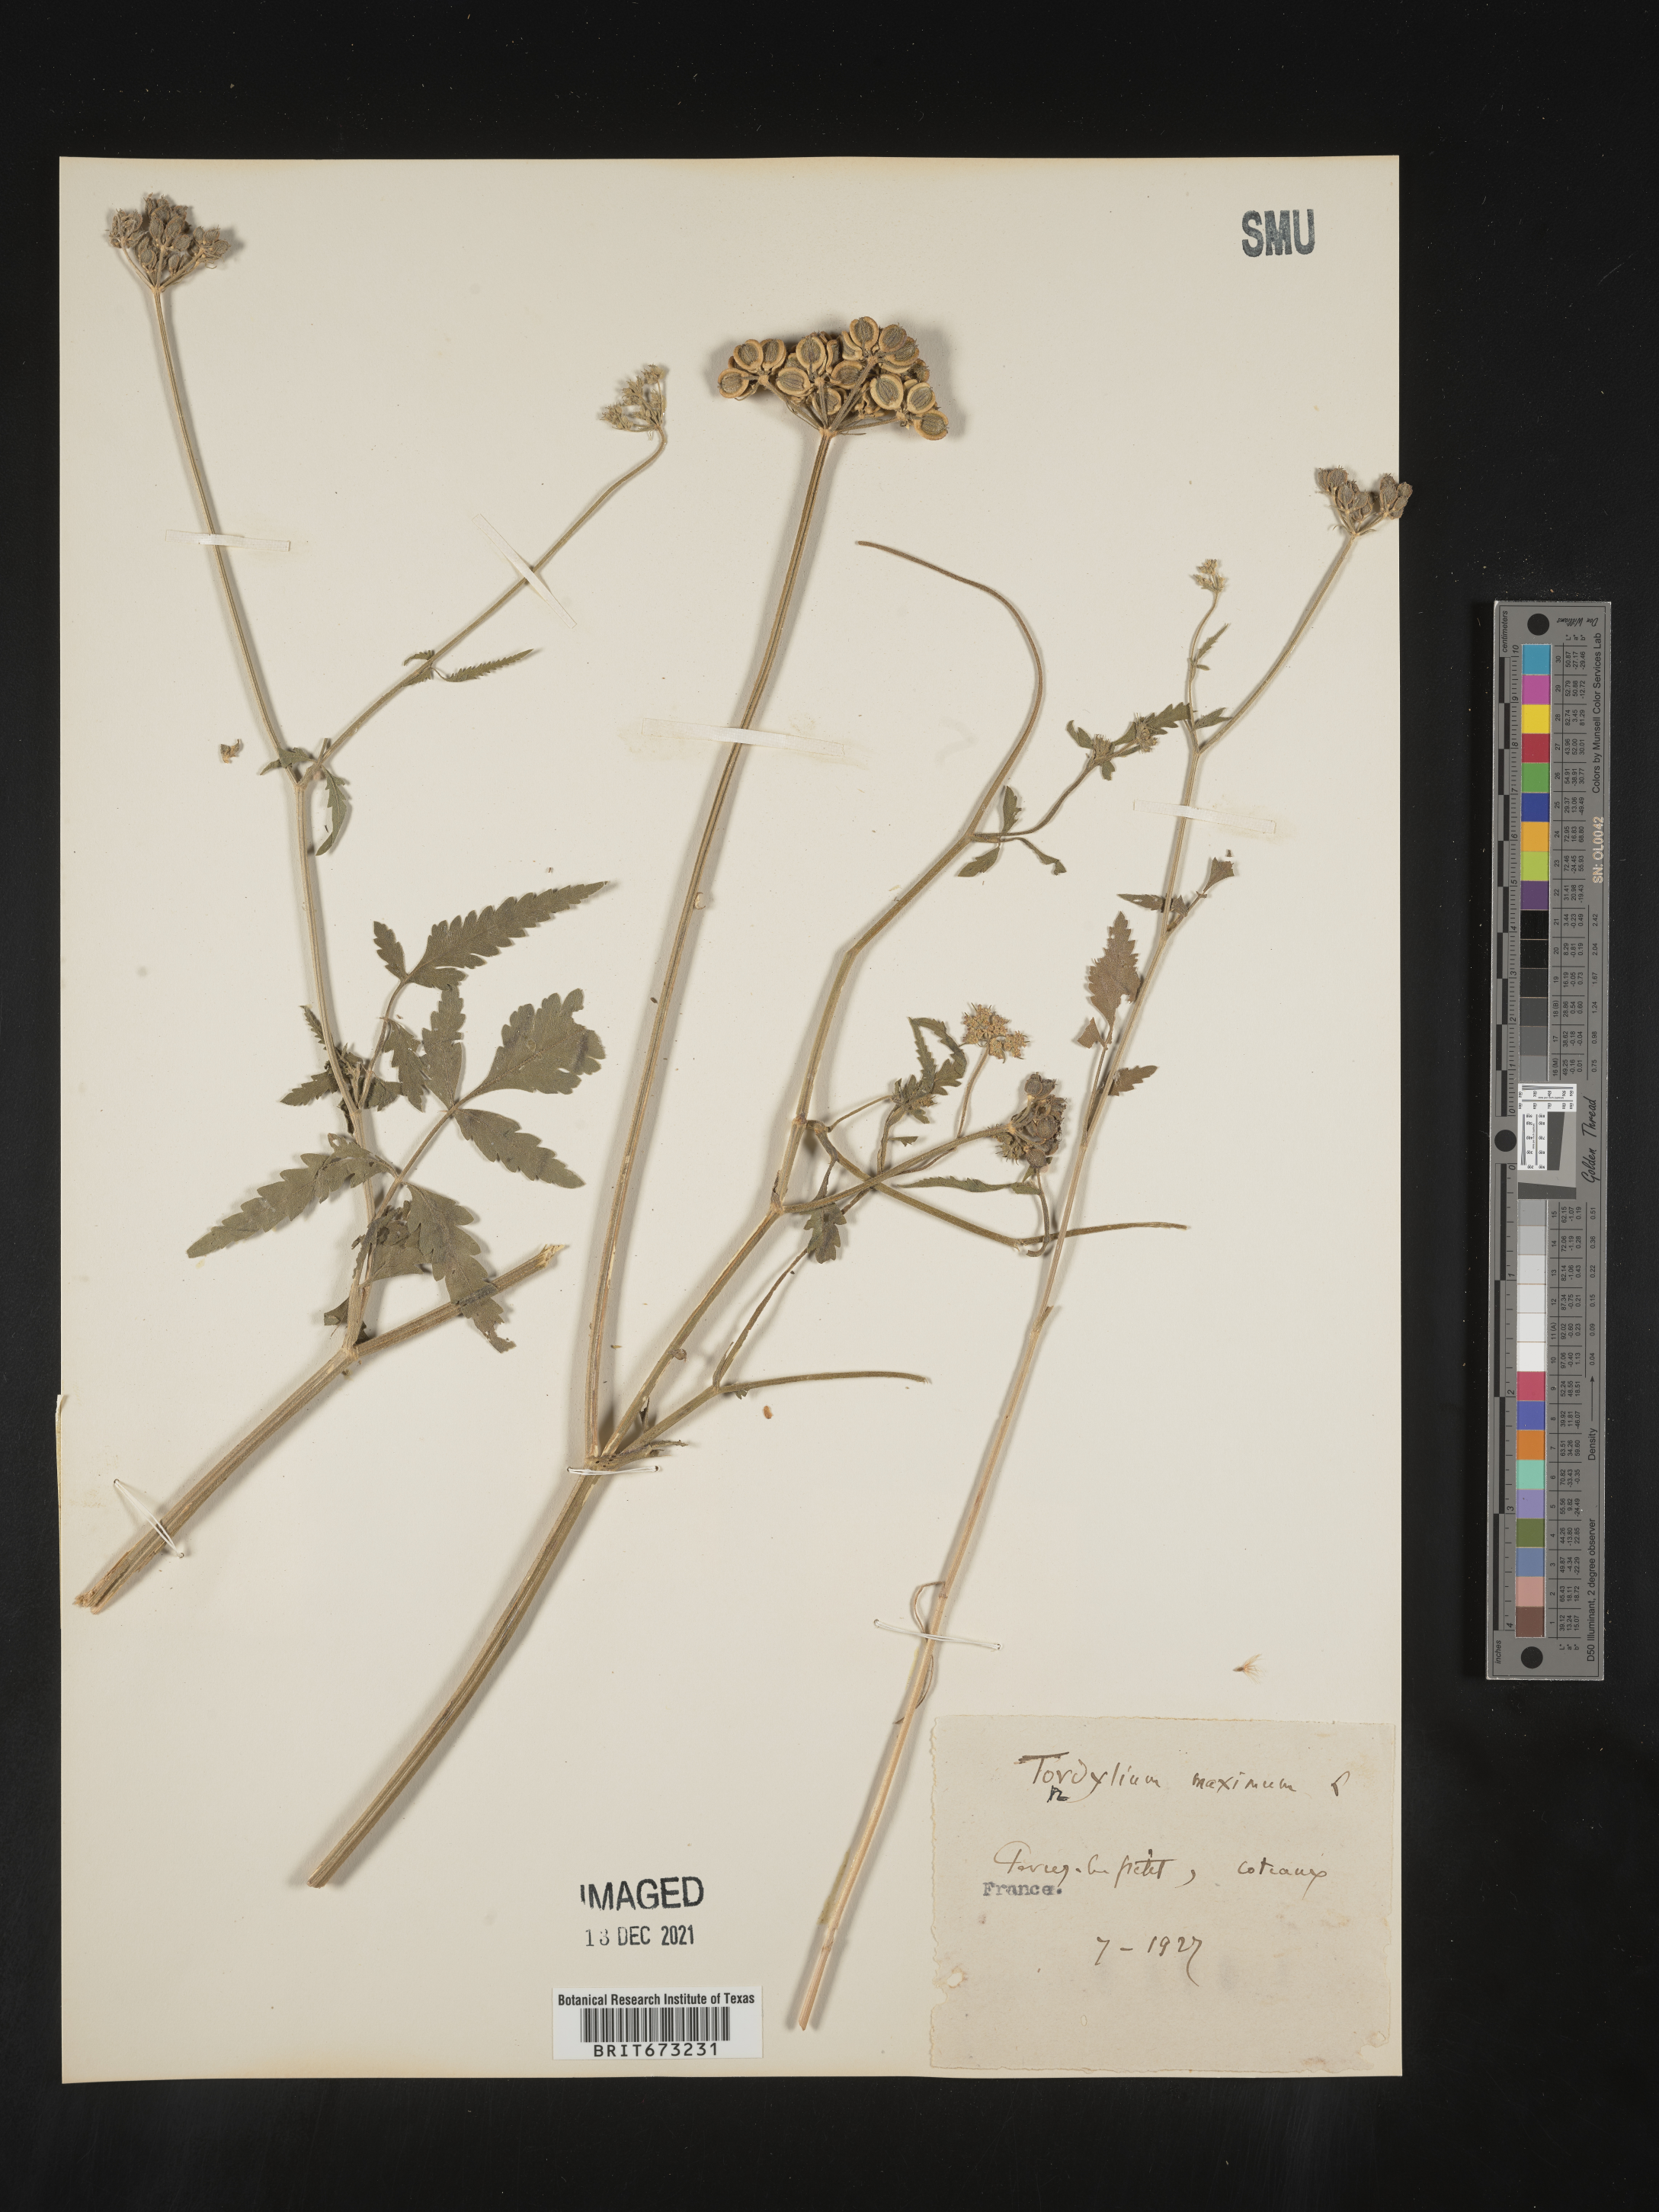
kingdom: Plantae
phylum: Tracheophyta
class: Magnoliopsida
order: Apiales
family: Apiaceae
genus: Tordylium
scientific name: Tordylium
